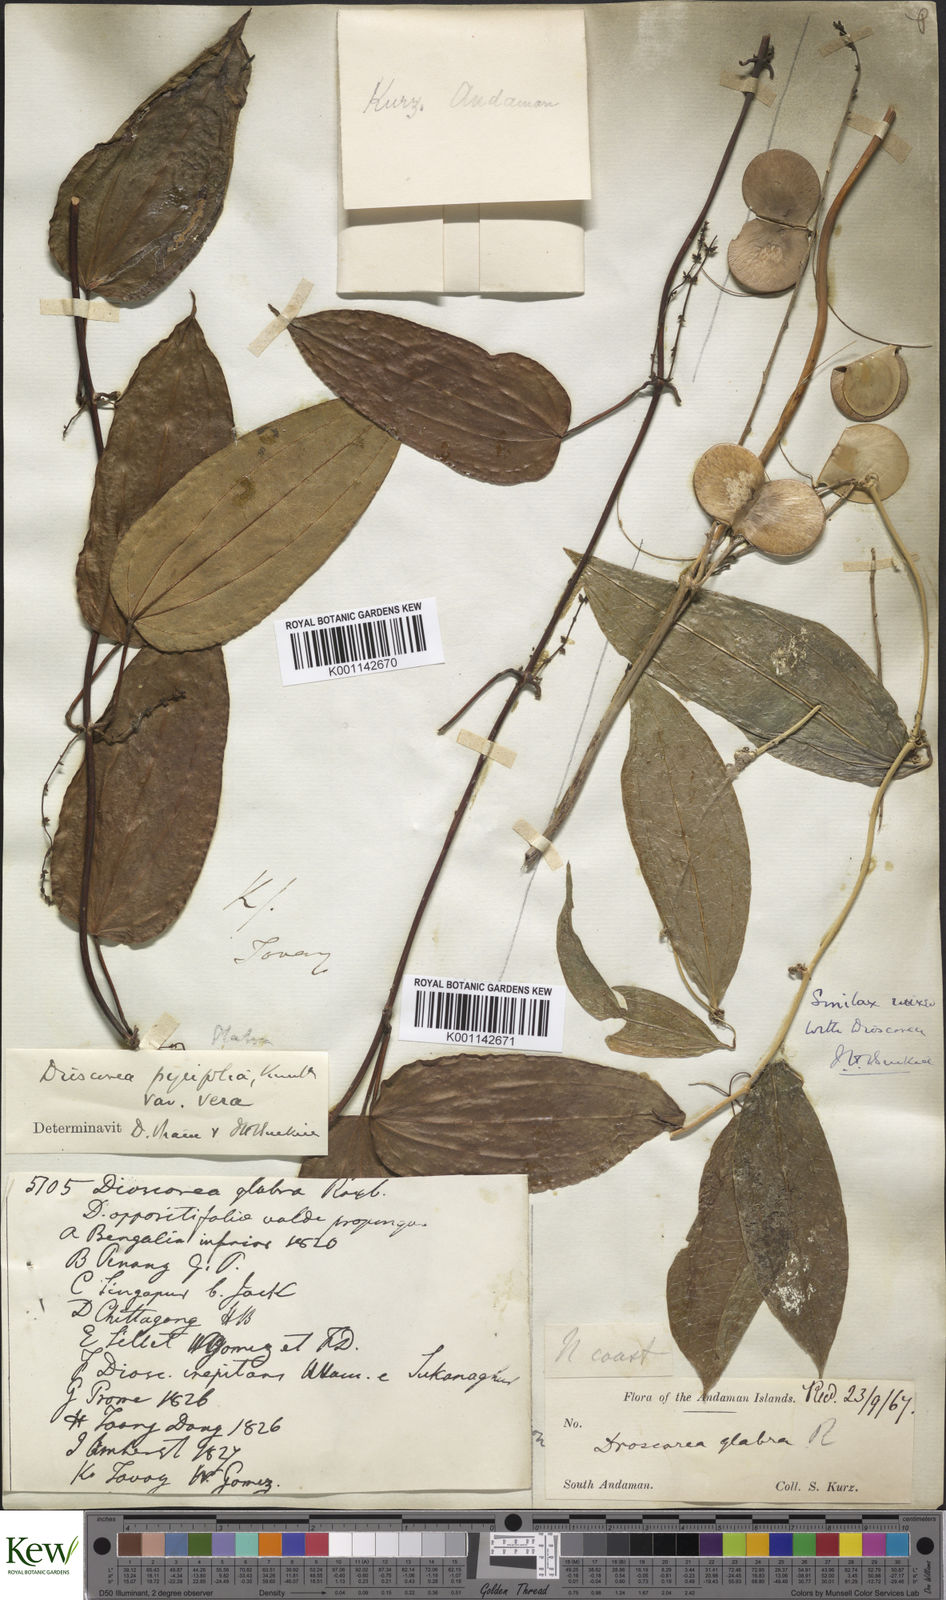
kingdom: Plantae
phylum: Tracheophyta
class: Liliopsida
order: Dioscoreales
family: Dioscoreaceae
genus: Dioscorea
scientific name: Dioscorea pyrifolia
